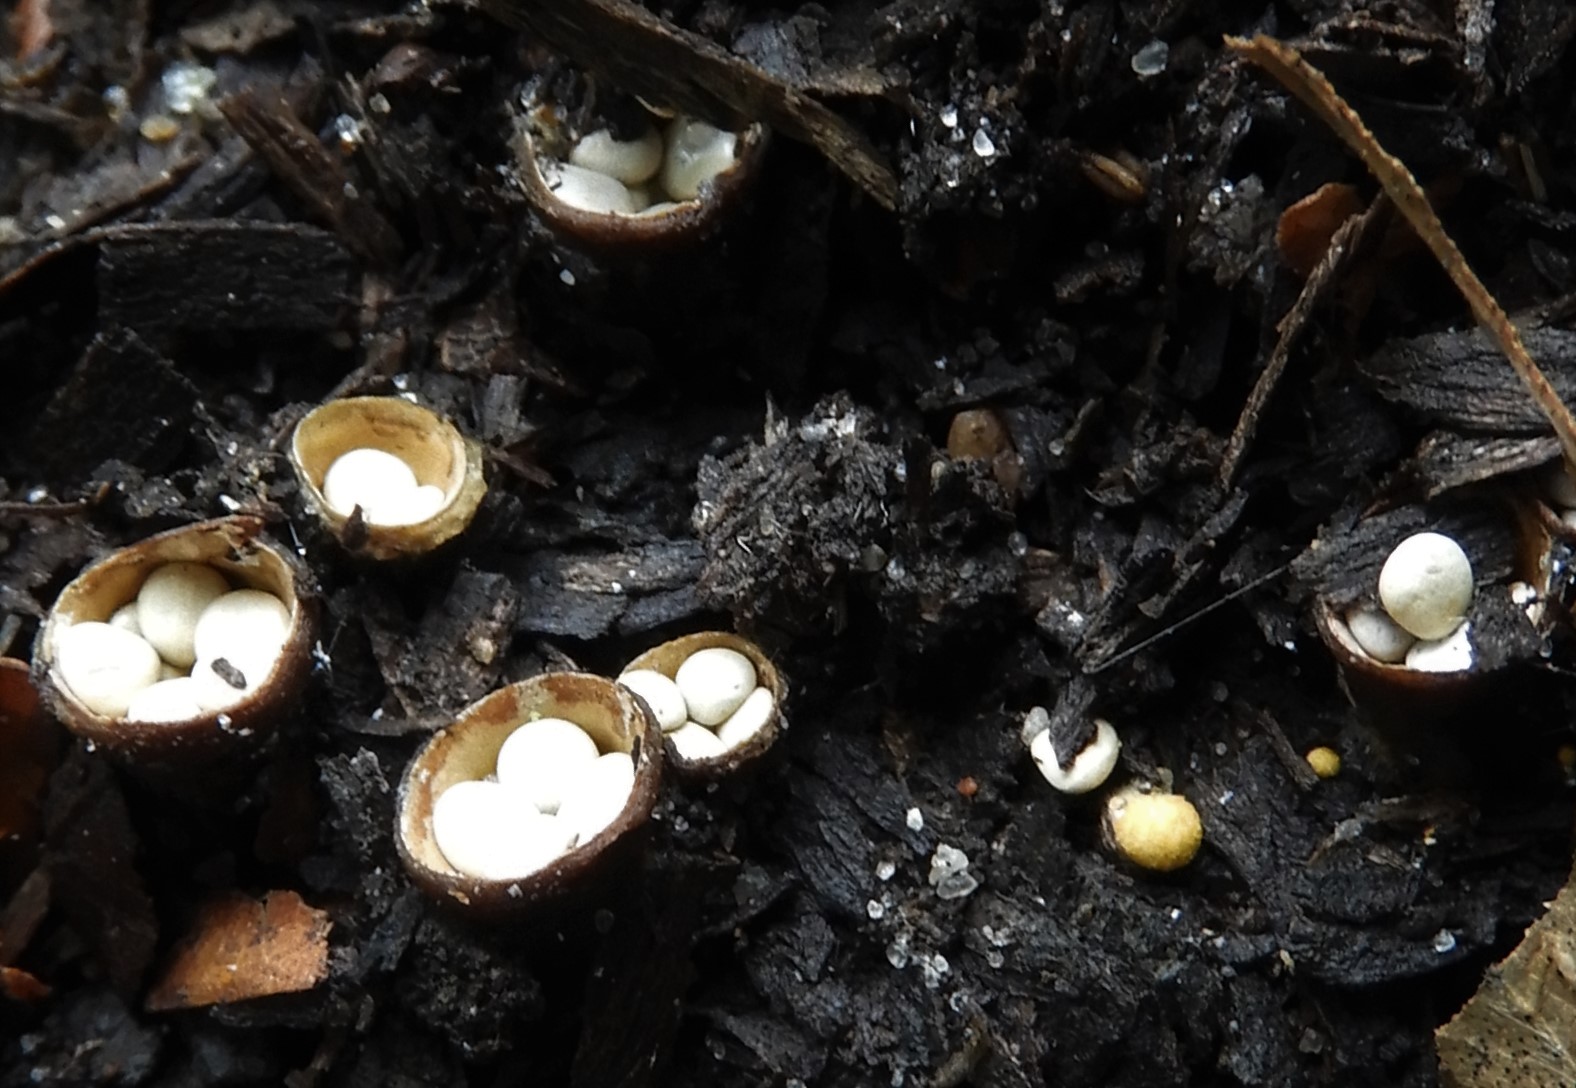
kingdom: Fungi
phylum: Basidiomycota
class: Agaricomycetes
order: Agaricales
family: Nidulariaceae
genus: Crucibulum
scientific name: Crucibulum crucibuliforme
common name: krukkesvamp
